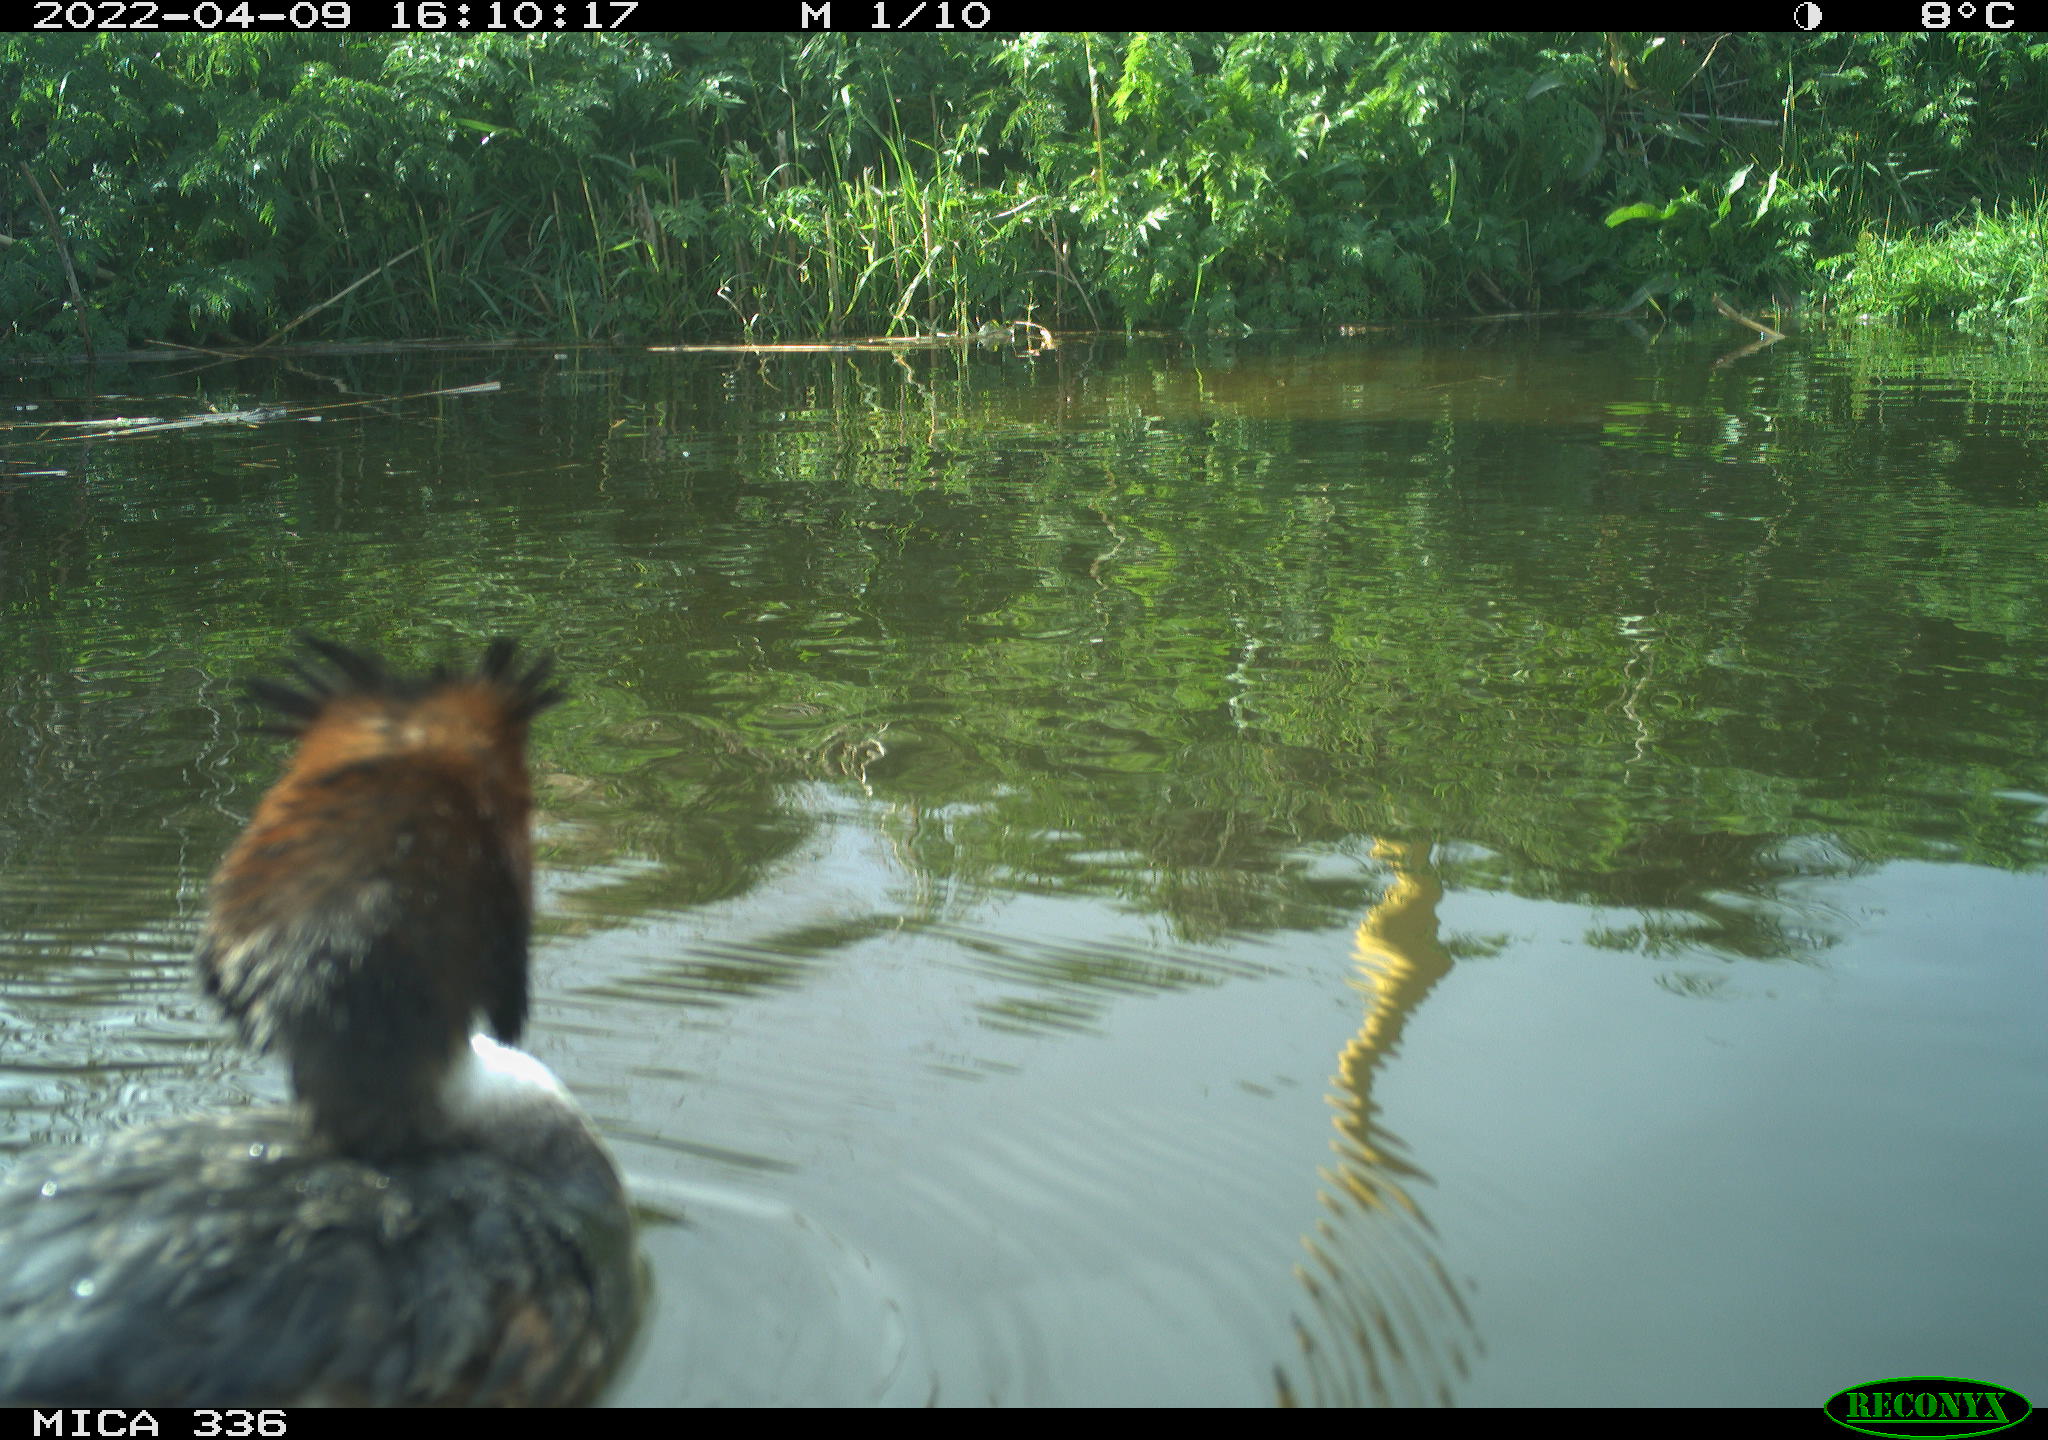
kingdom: Animalia
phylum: Chordata
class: Aves
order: Podicipediformes
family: Podicipedidae
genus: Podiceps
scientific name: Podiceps cristatus
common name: Great crested grebe
